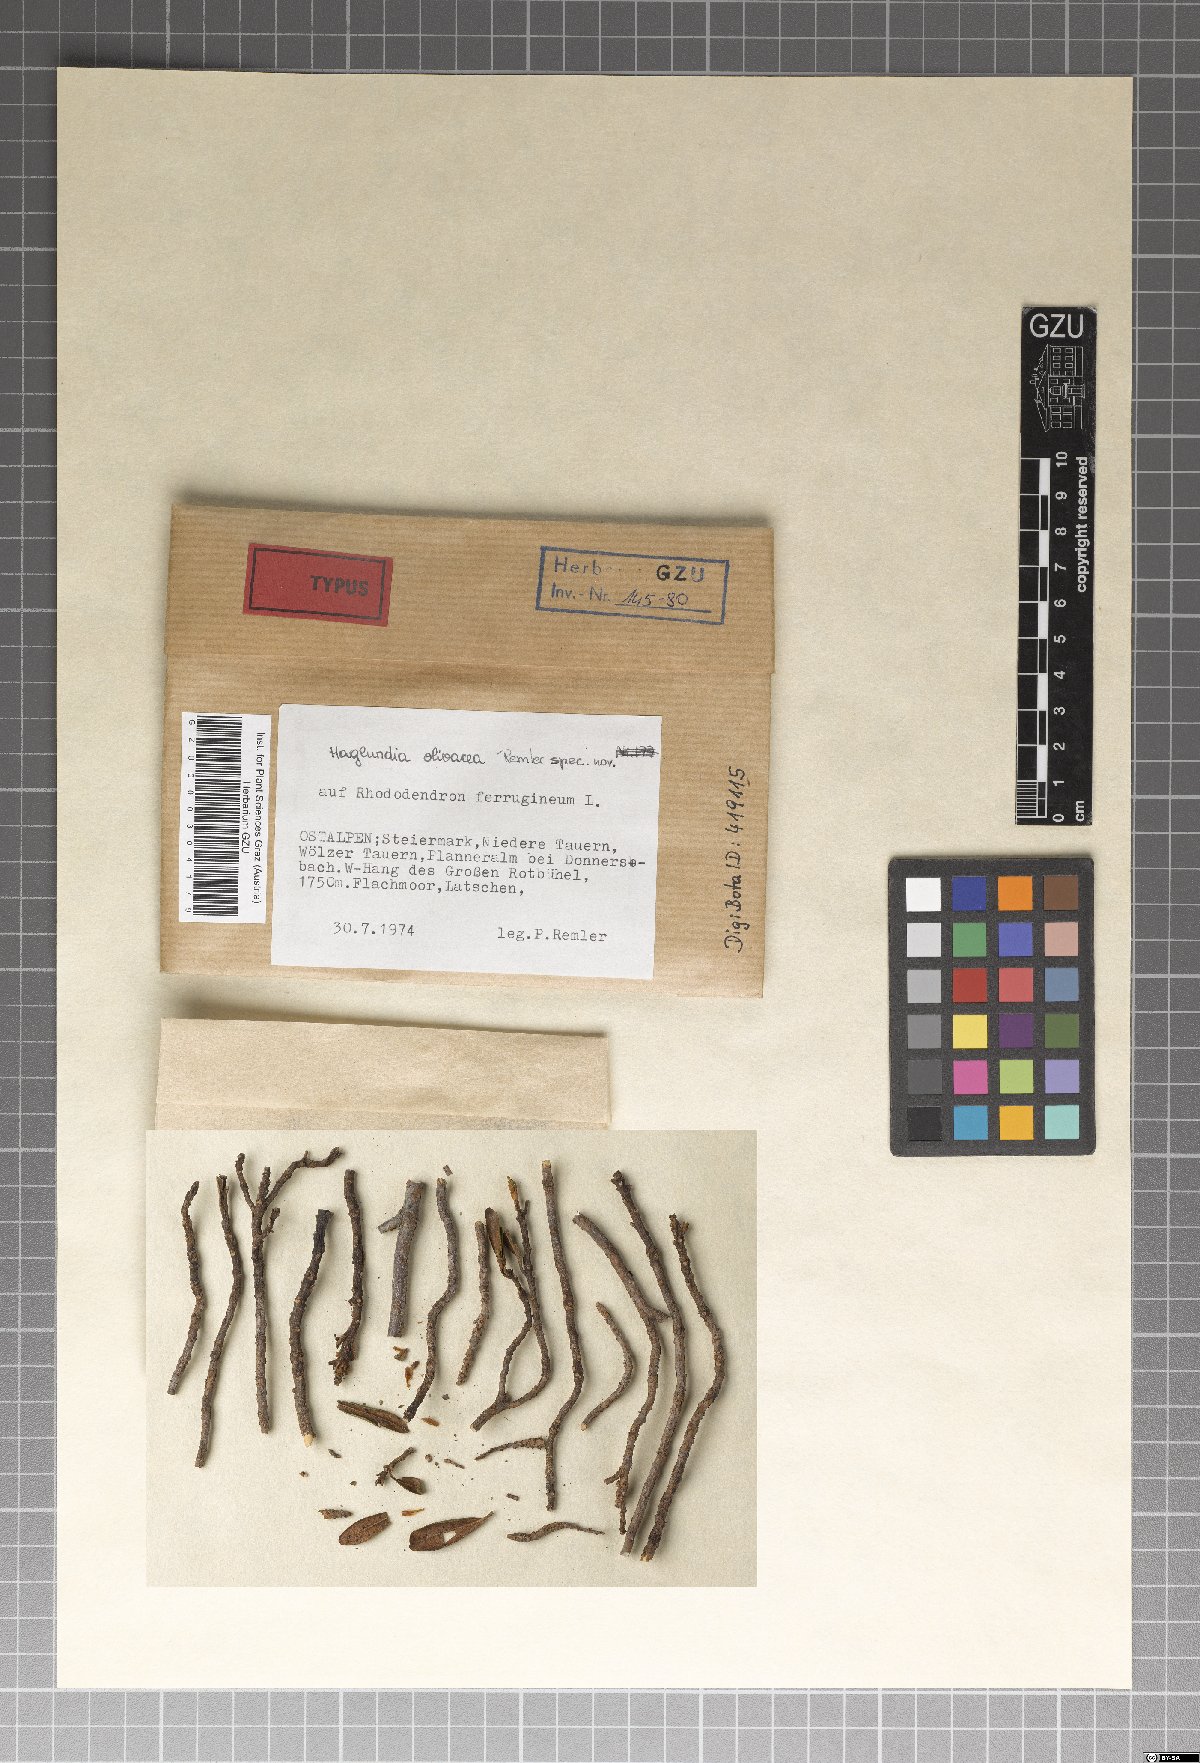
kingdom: Fungi
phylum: Ascomycota
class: Leotiomycetes
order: Helotiales
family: Mollisiaceae
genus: Haglundia
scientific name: Haglundia olivacea
